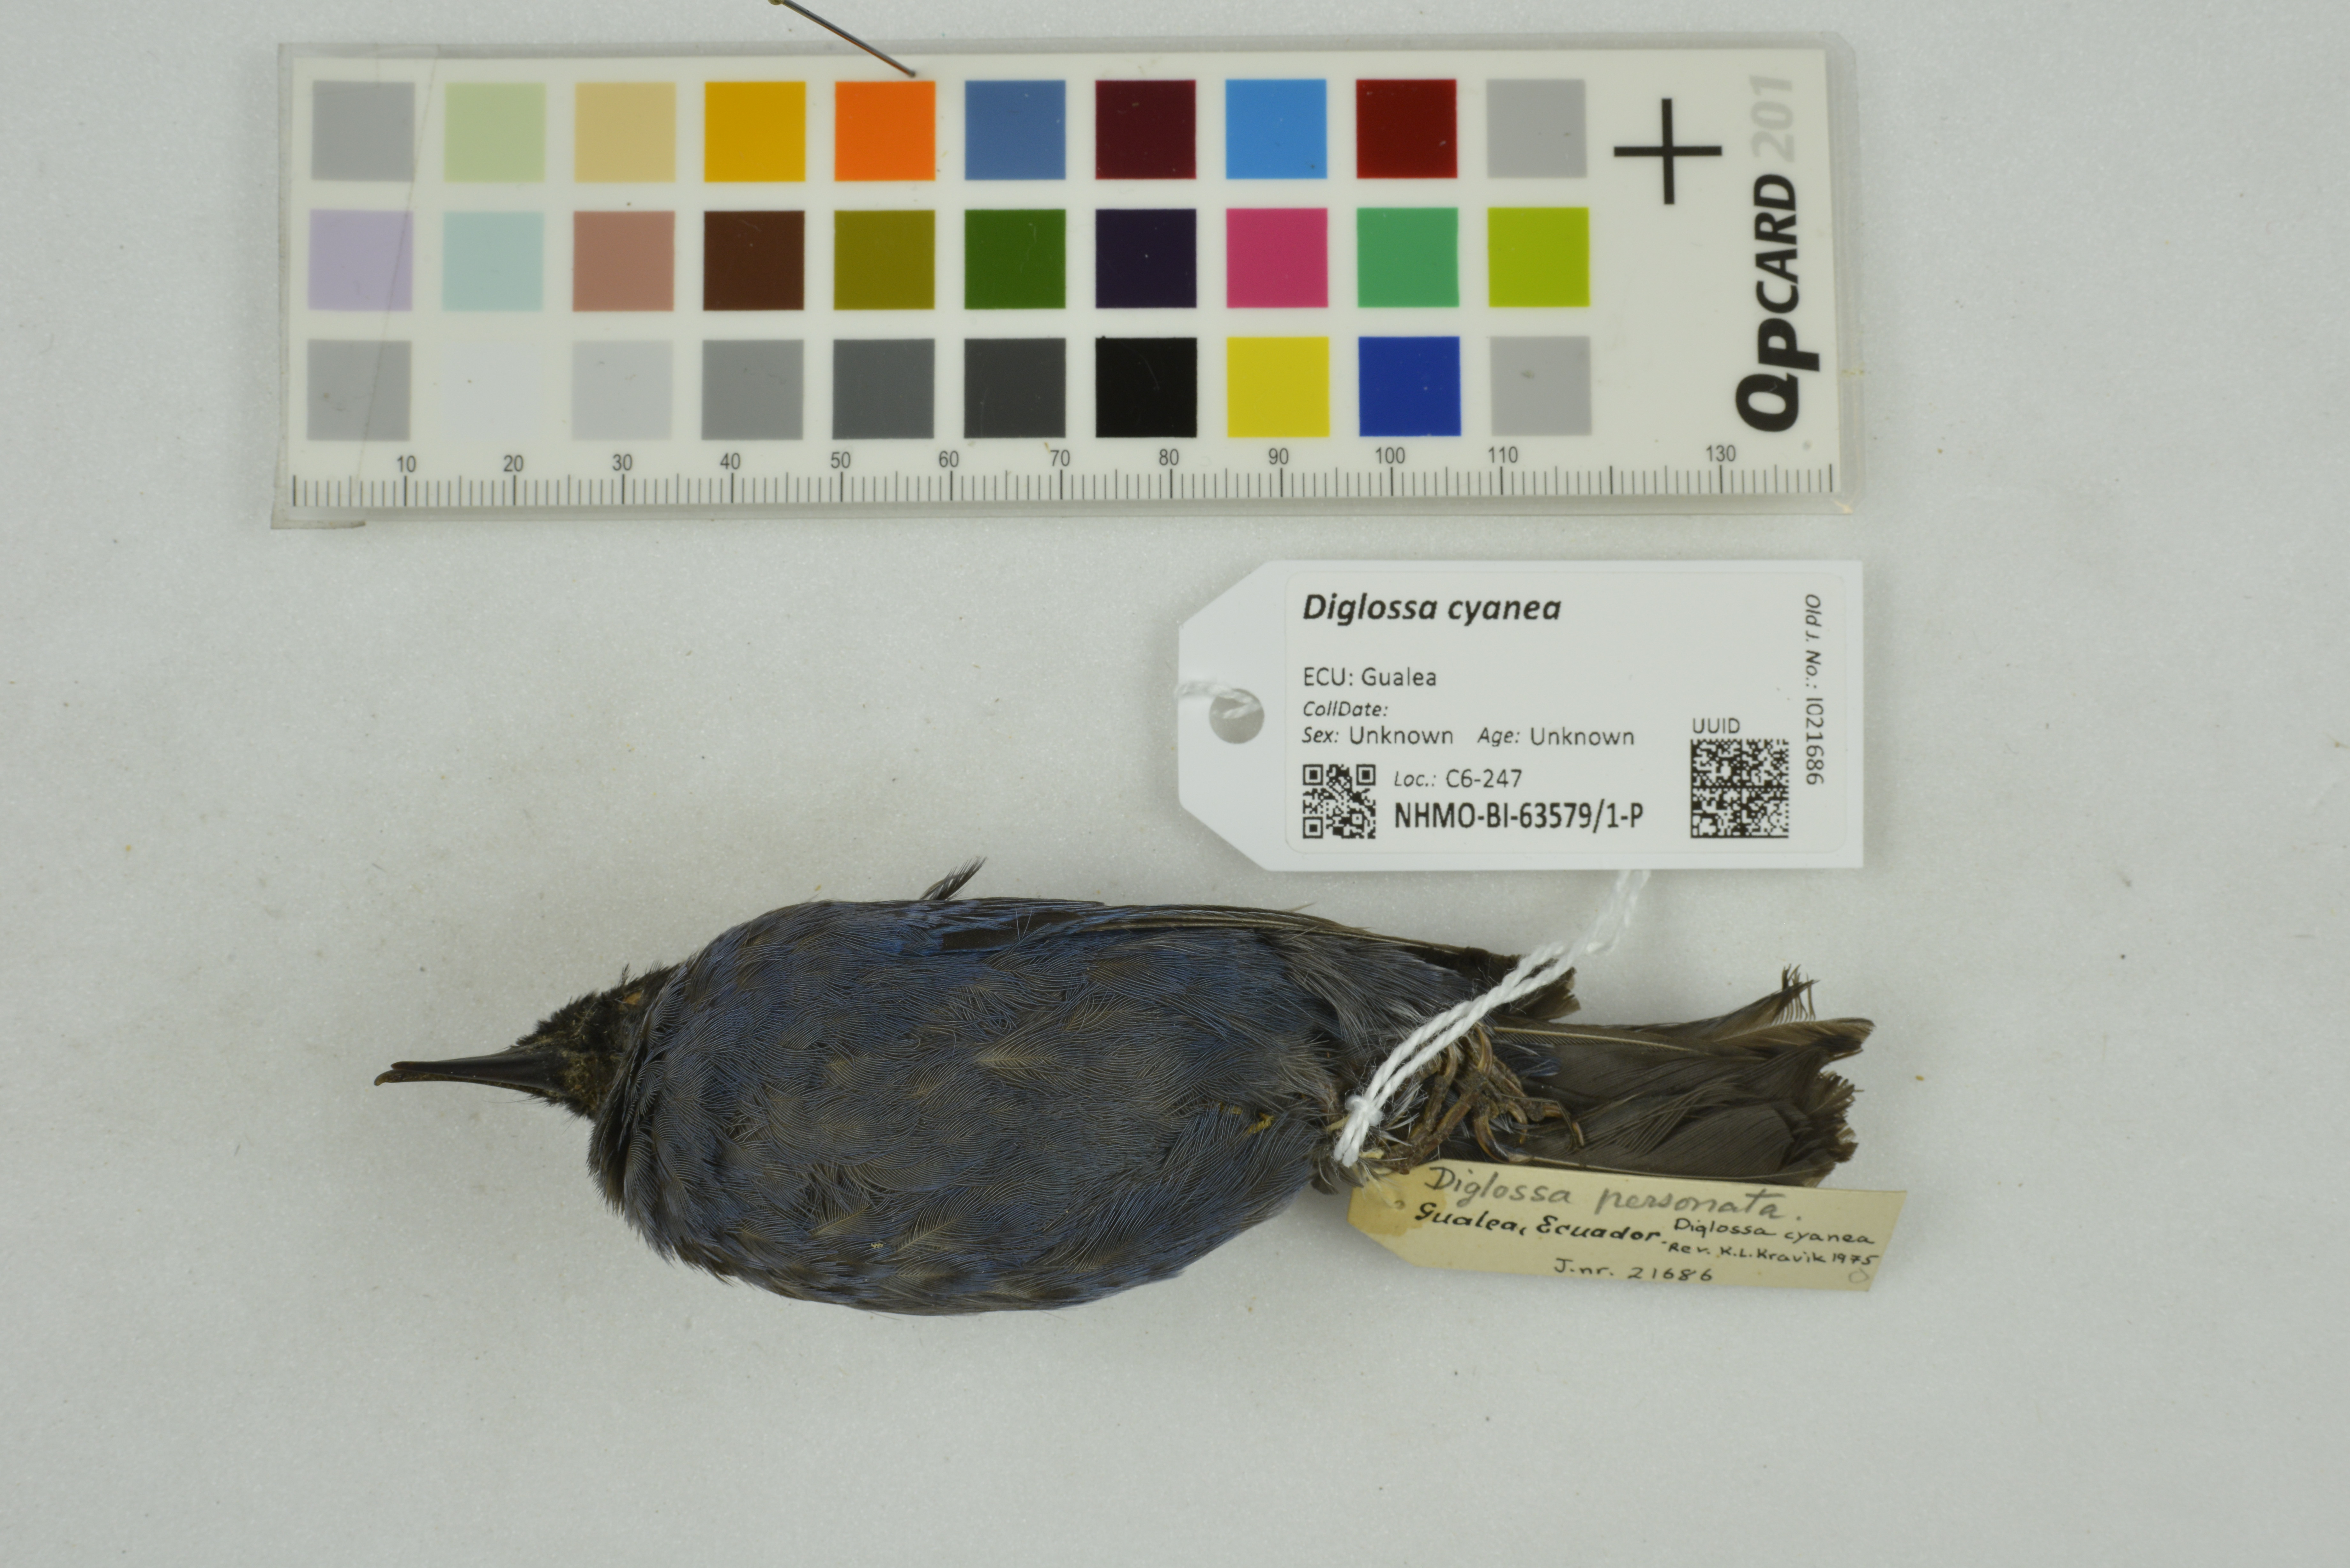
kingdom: Animalia
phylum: Chordata
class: Aves
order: Passeriformes
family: Thraupidae
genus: Diglossa
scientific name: Diglossa cyanea
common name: Masked flowerpiercer
